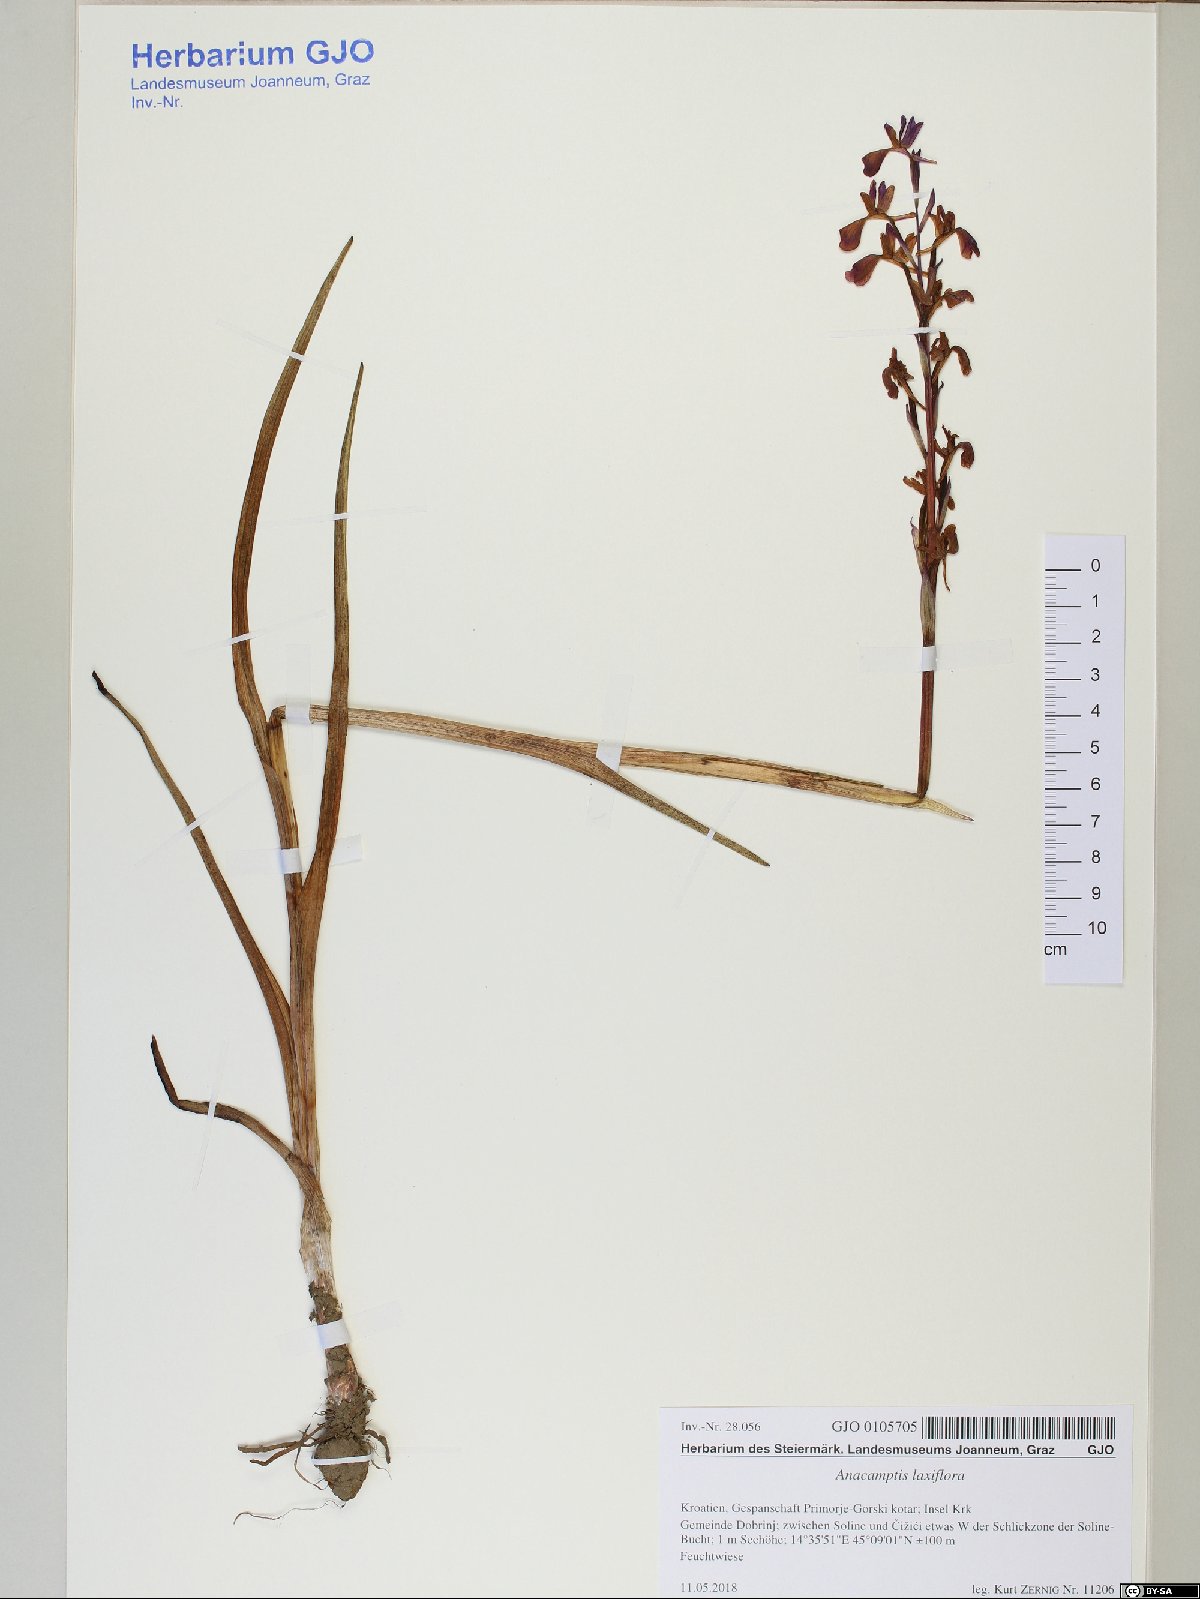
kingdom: Plantae
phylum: Tracheophyta
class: Liliopsida
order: Asparagales
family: Orchidaceae
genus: Anacamptis
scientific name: Anacamptis laxiflora
